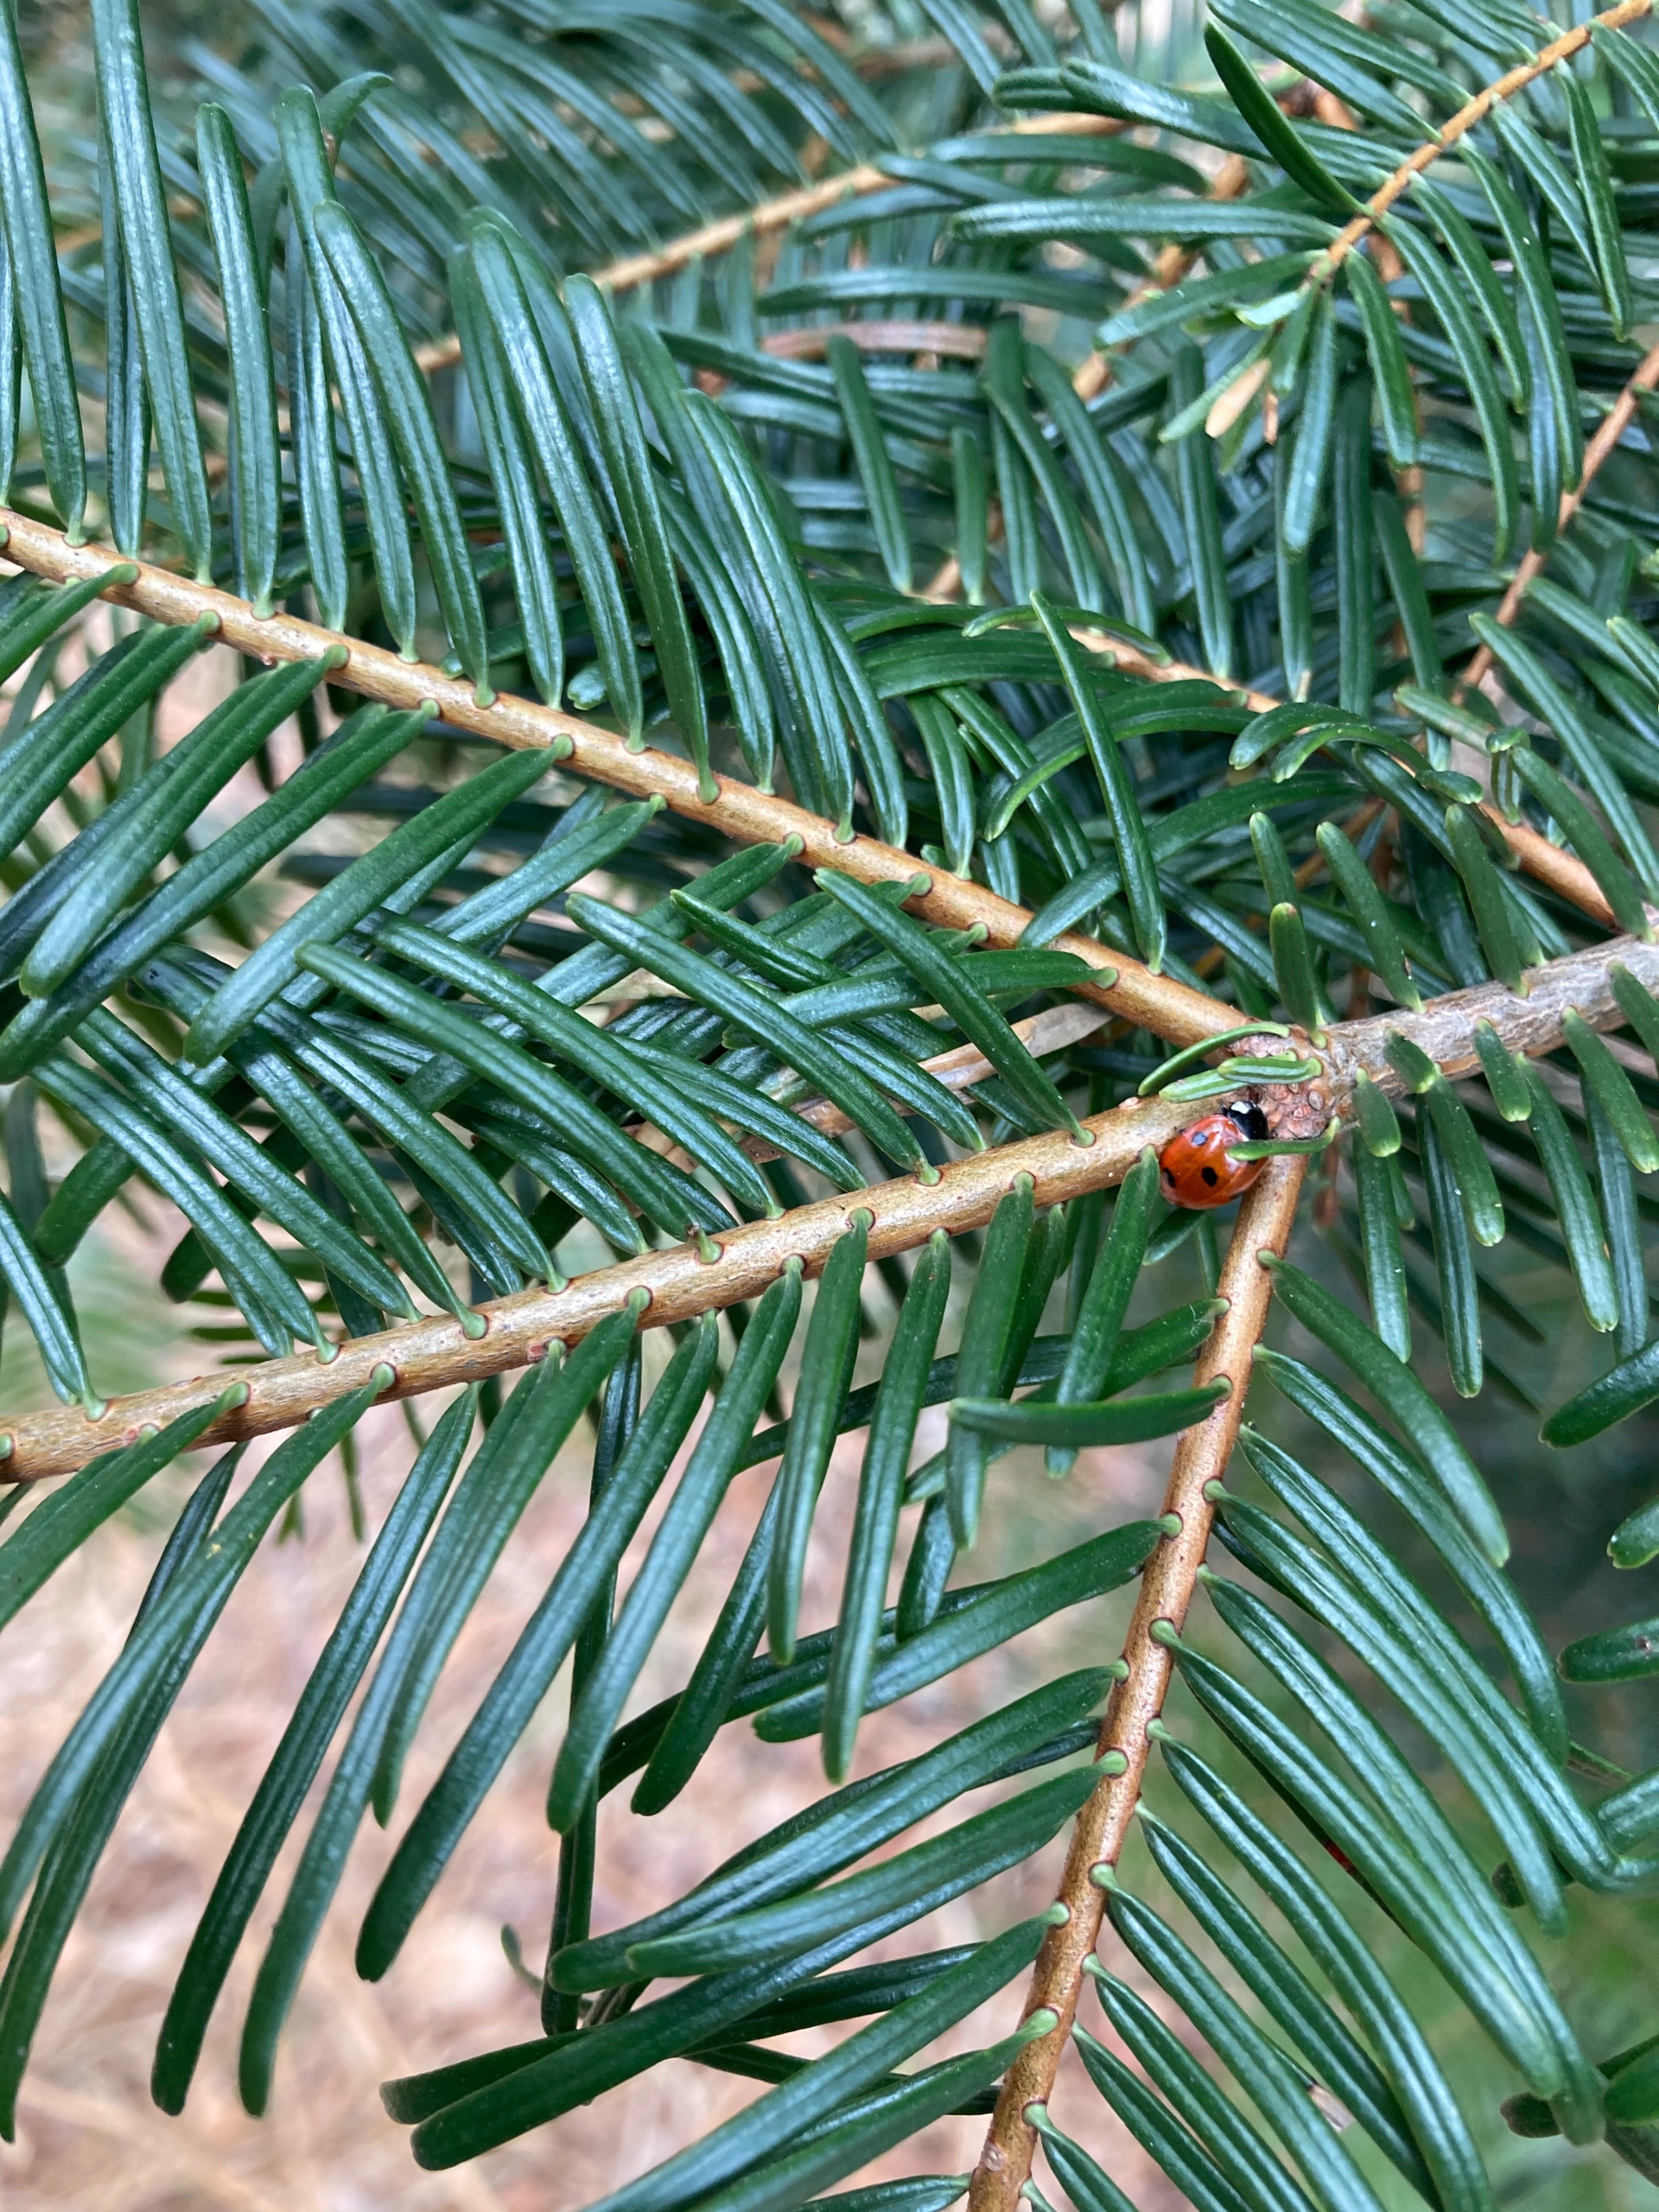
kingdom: Animalia
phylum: Arthropoda
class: Insecta
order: Coleoptera
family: Coccinellidae
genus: Coccinella
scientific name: Coccinella septempunctata
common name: Syvplettet mariehøne
